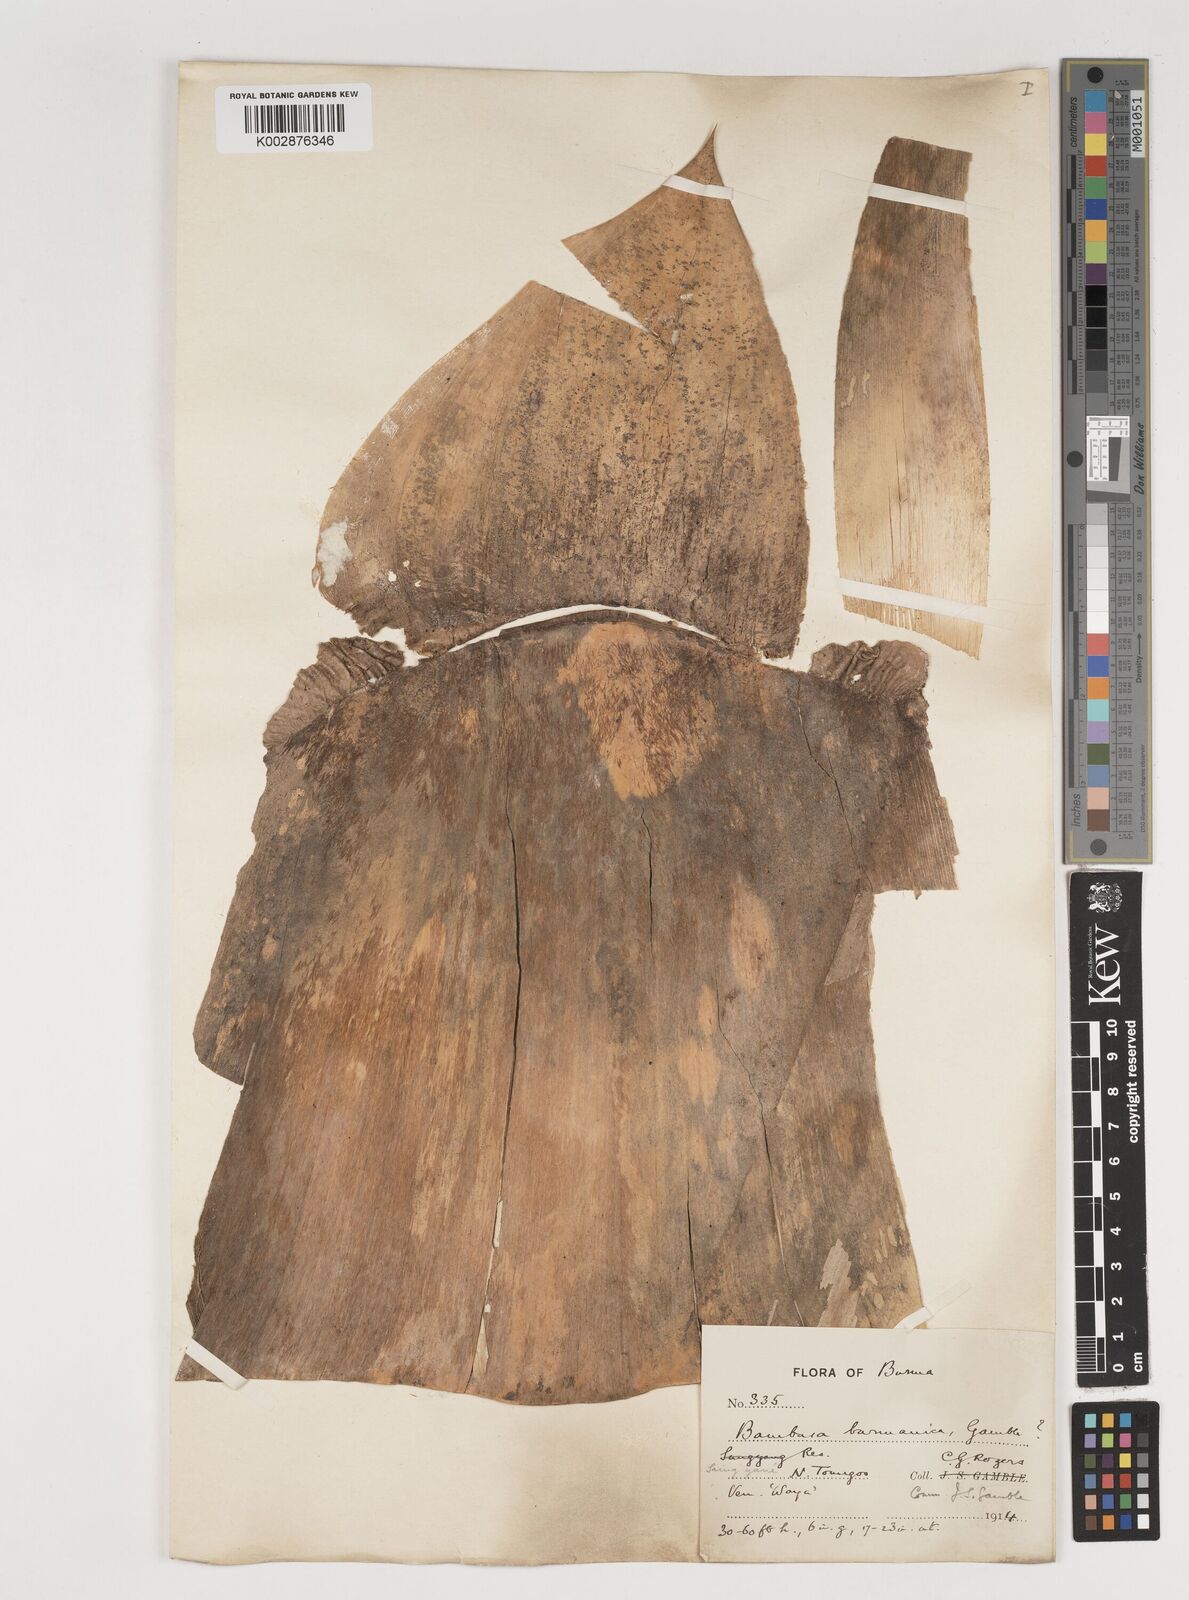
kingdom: Plantae
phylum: Tracheophyta
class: Liliopsida
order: Poales
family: Poaceae
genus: Bambusa
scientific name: Bambusa burmanica
